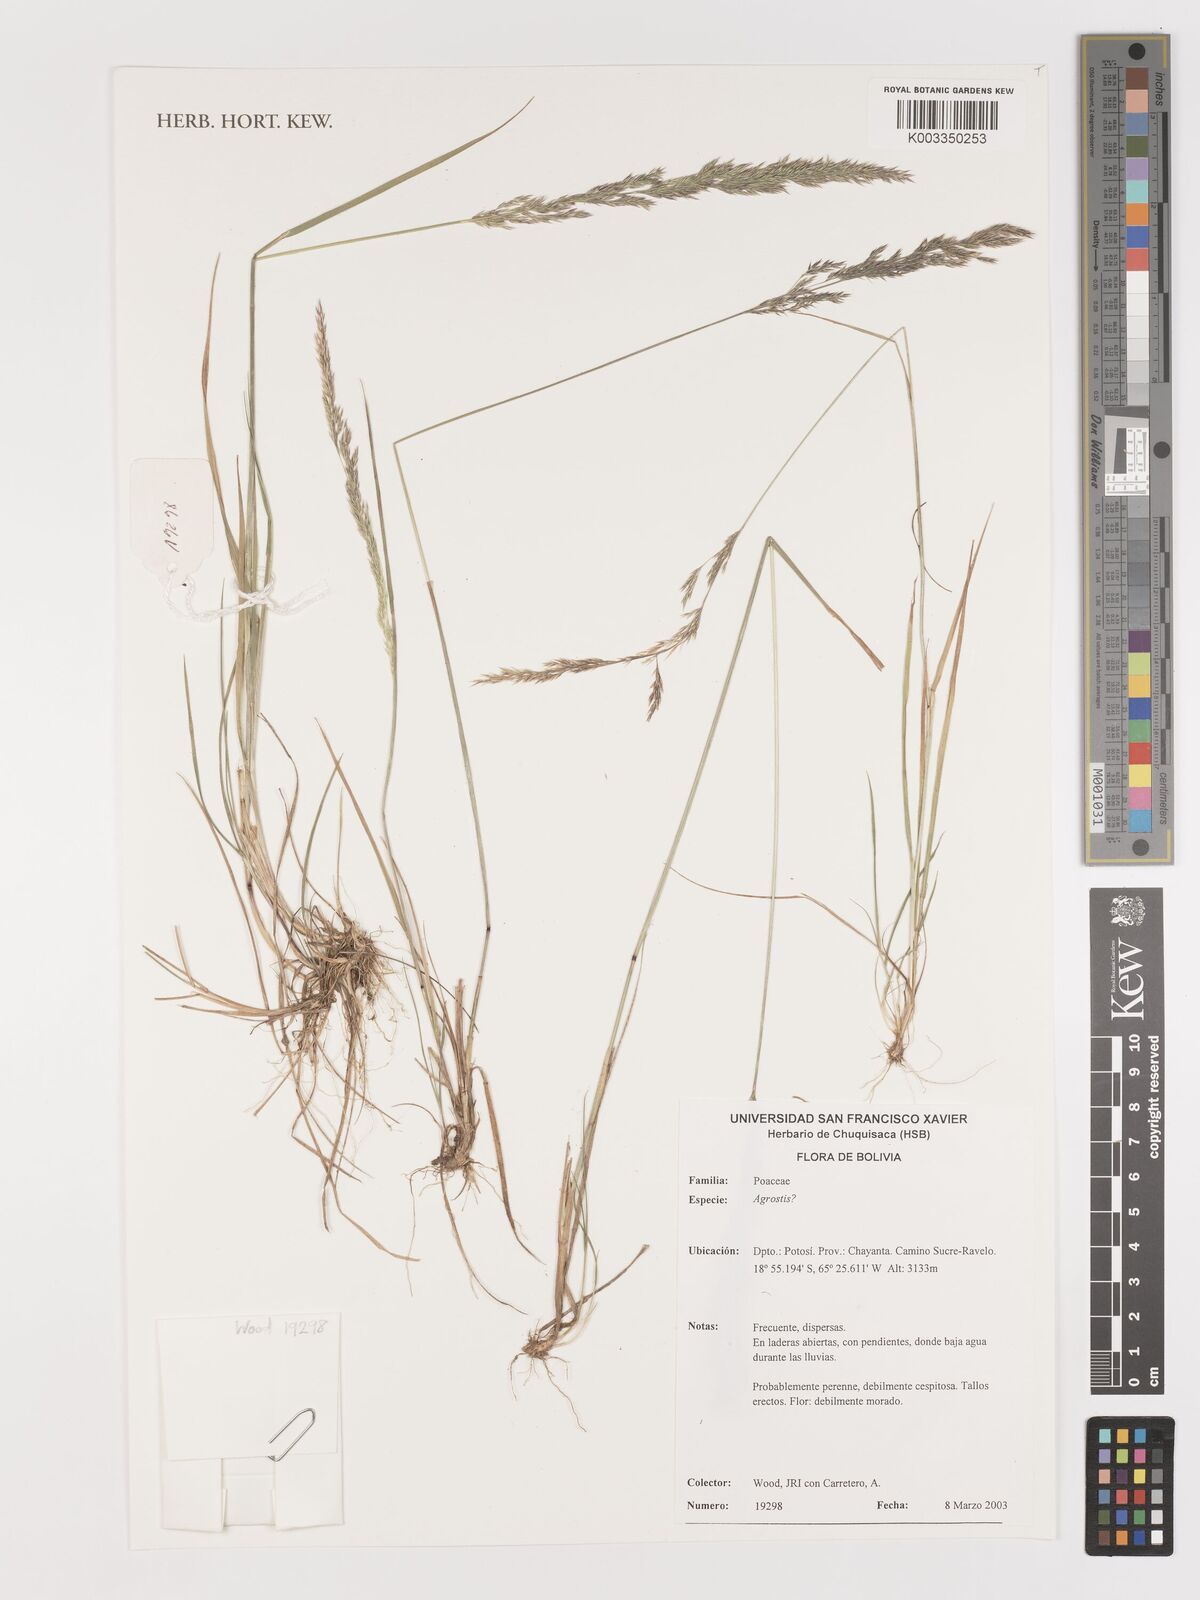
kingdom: Plantae
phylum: Tracheophyta
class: Liliopsida
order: Poales
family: Poaceae
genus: Agrostis
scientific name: Agrostis
